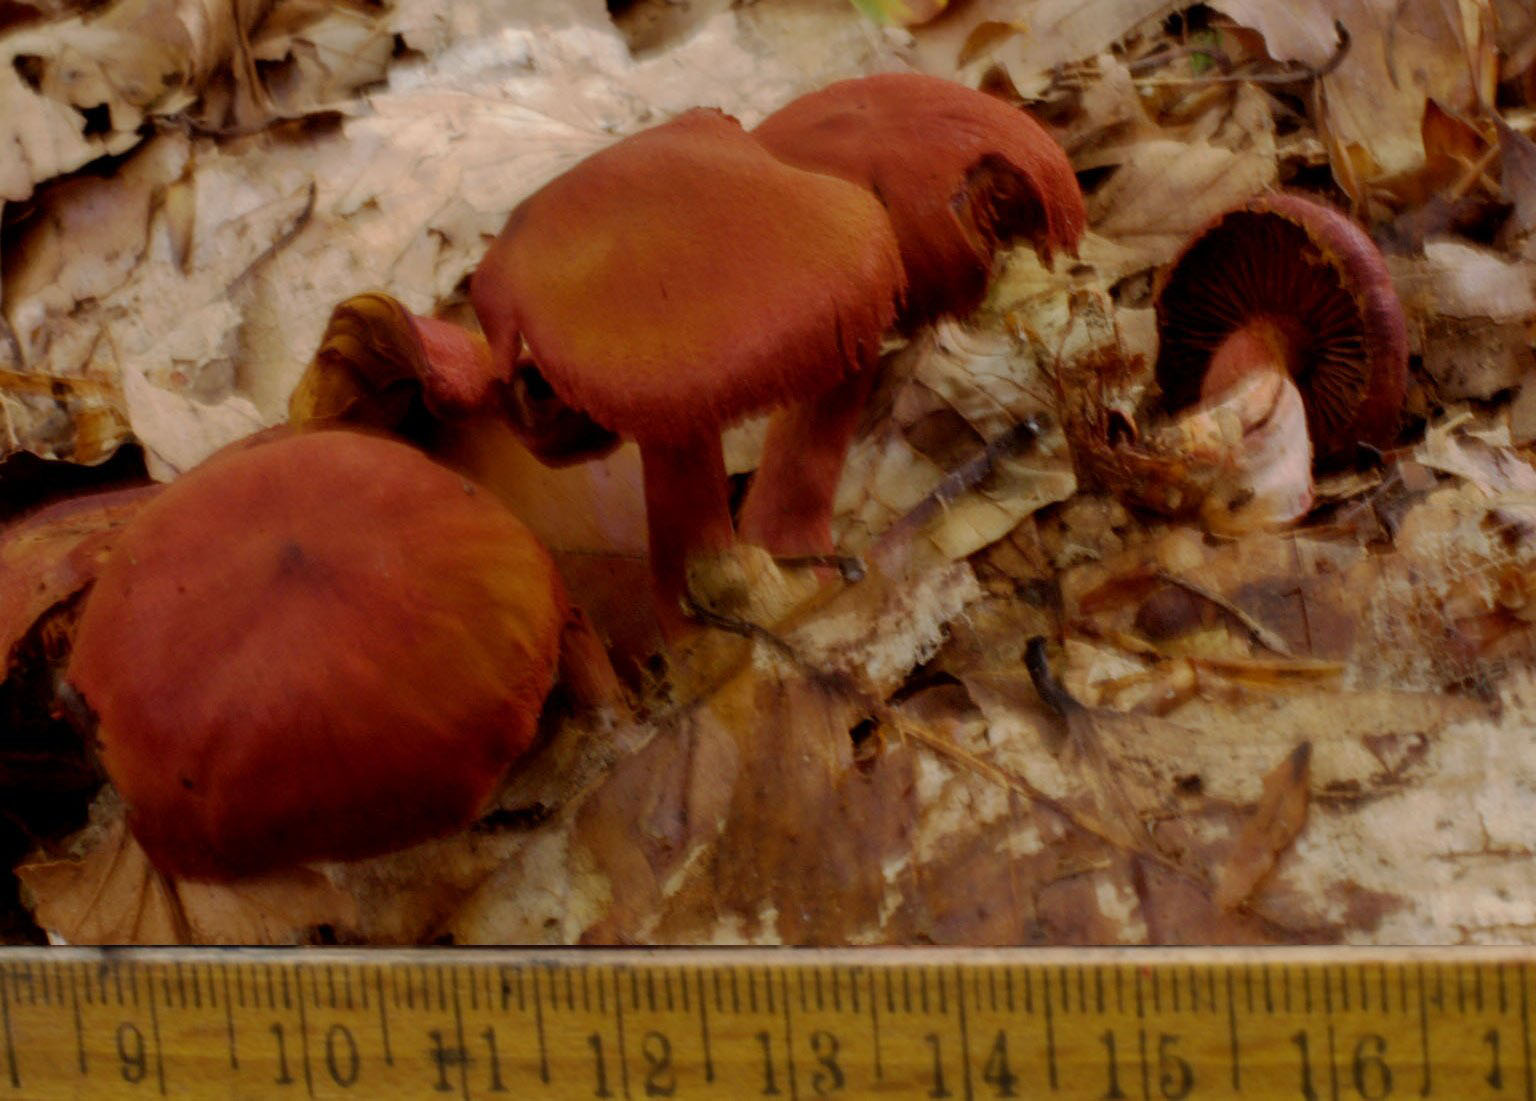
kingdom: Fungi
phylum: Basidiomycota
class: Agaricomycetes
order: Agaricales
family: Cortinariaceae
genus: Cortinarius
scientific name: Cortinarius sanguineus
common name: Bloodred webcap
